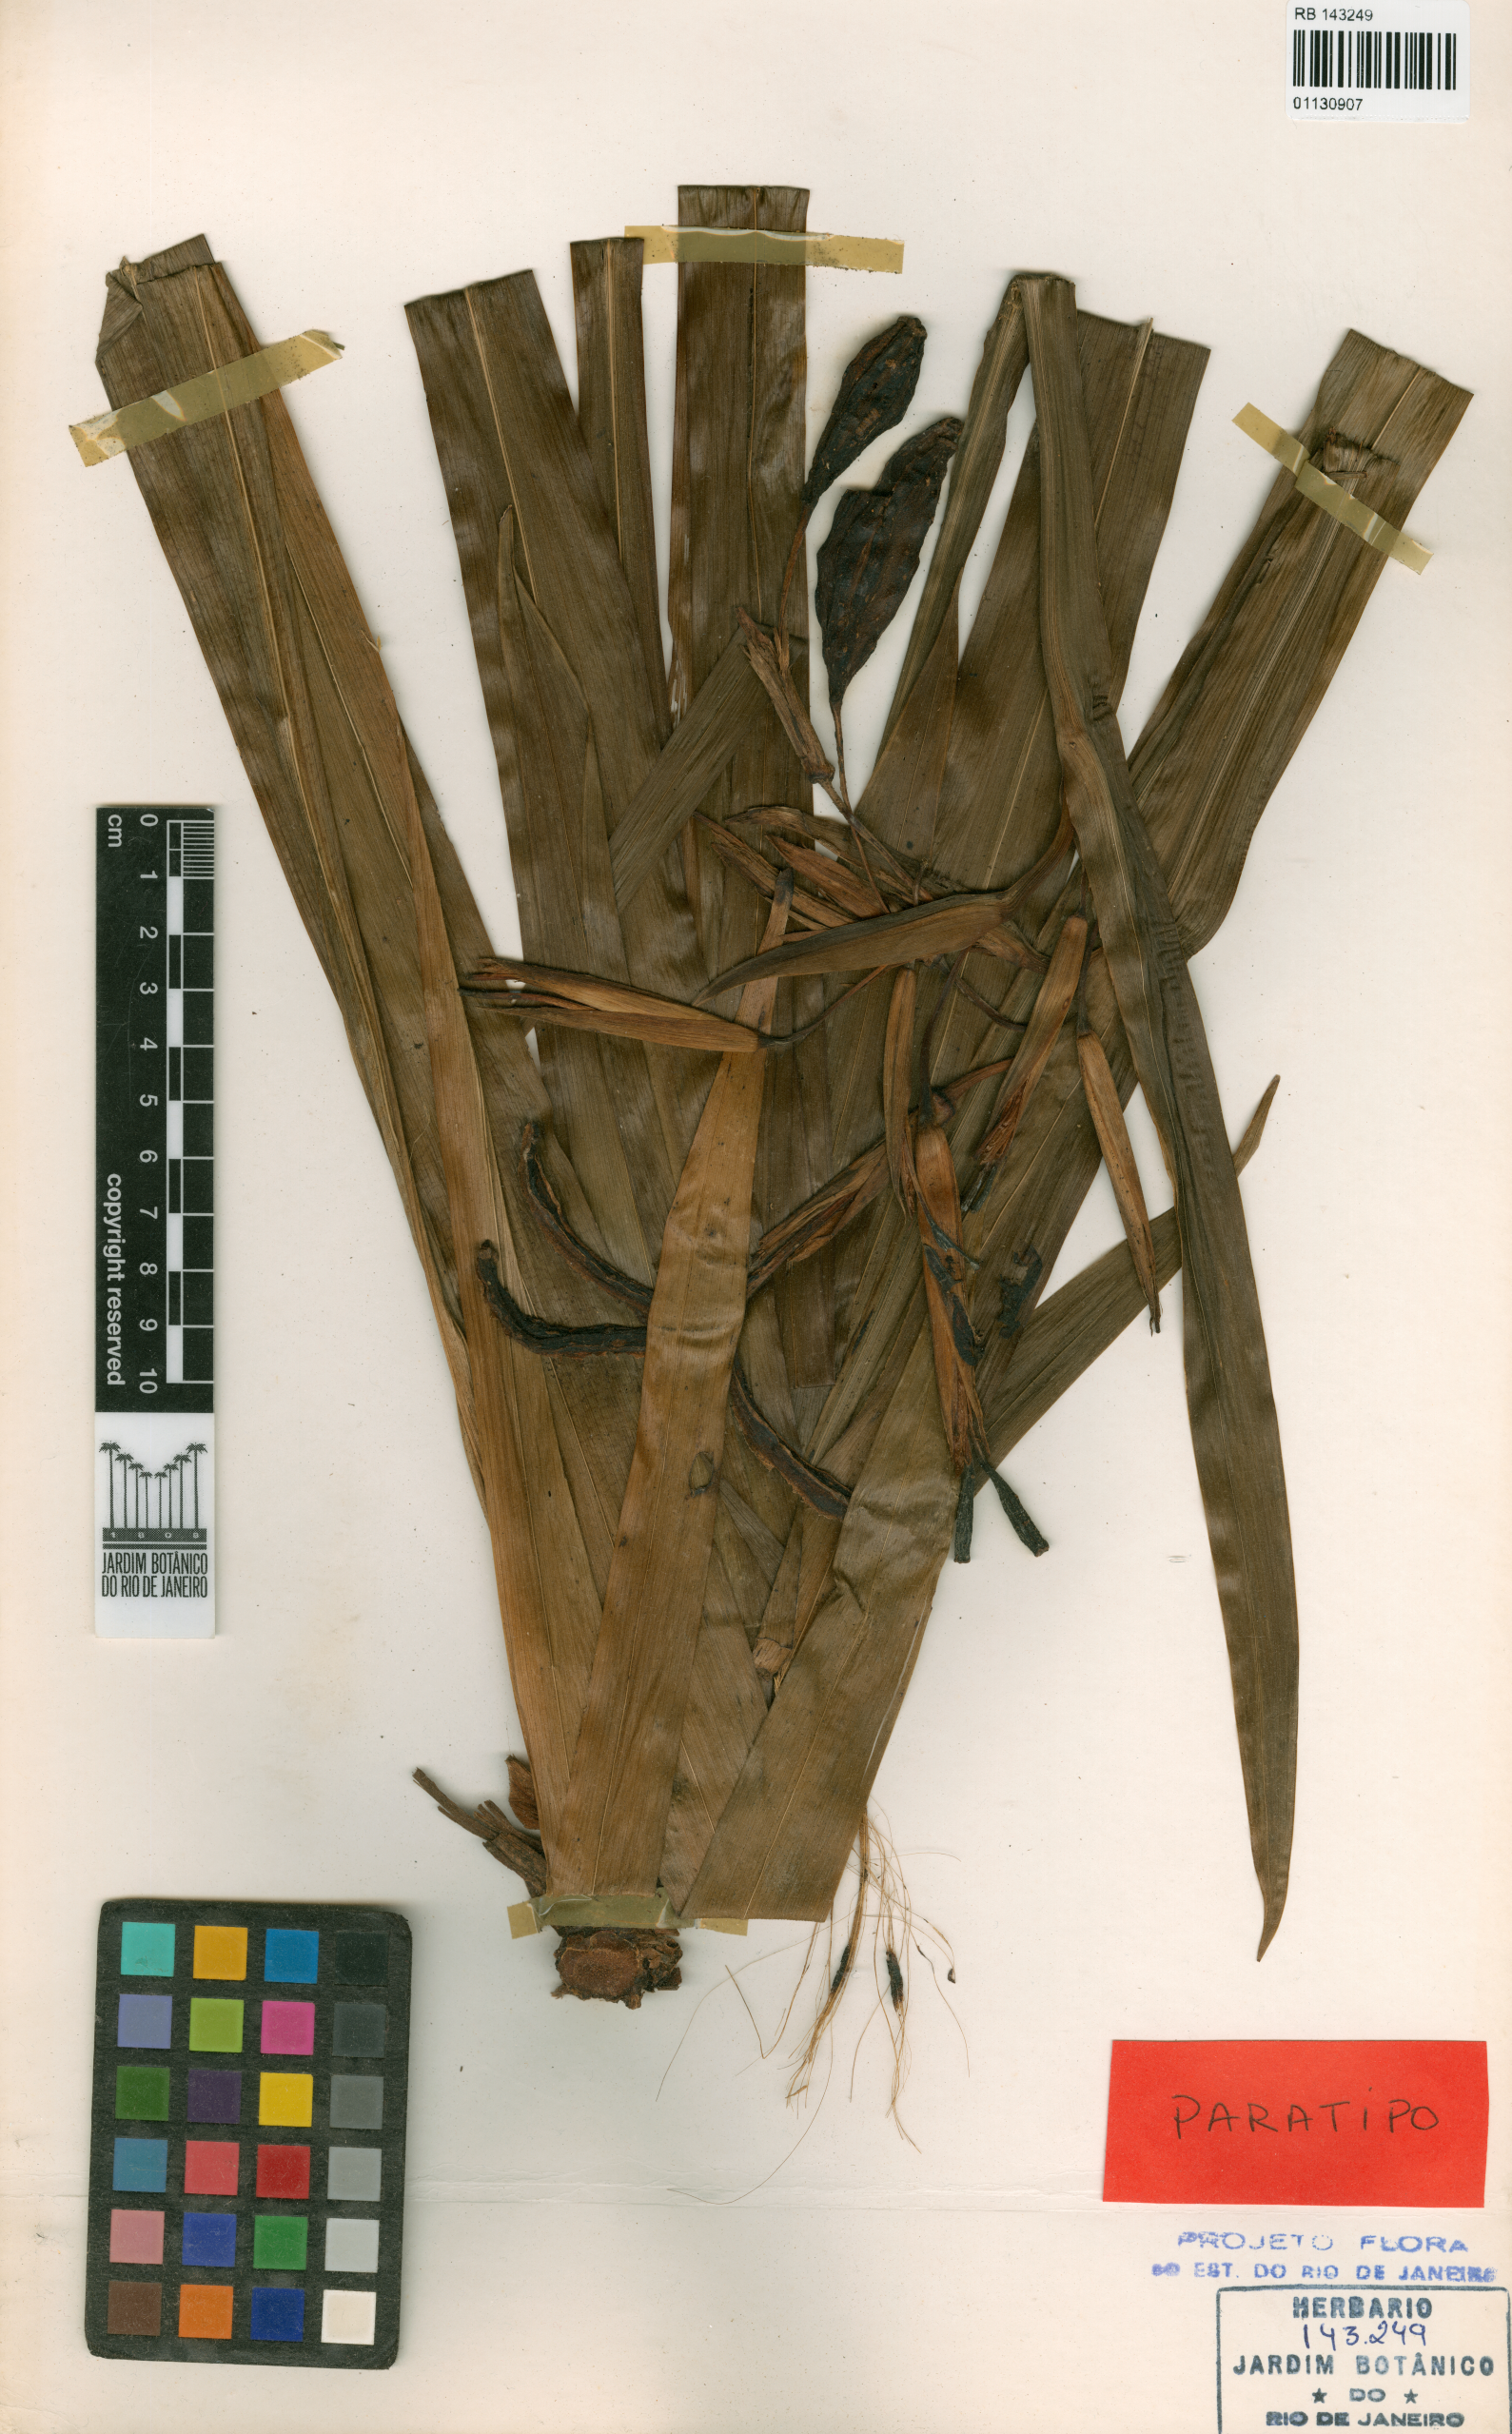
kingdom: Plantae
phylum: Tracheophyta
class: Liliopsida
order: Asparagales
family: Iridaceae
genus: Trimezia
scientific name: Trimezia pardina
